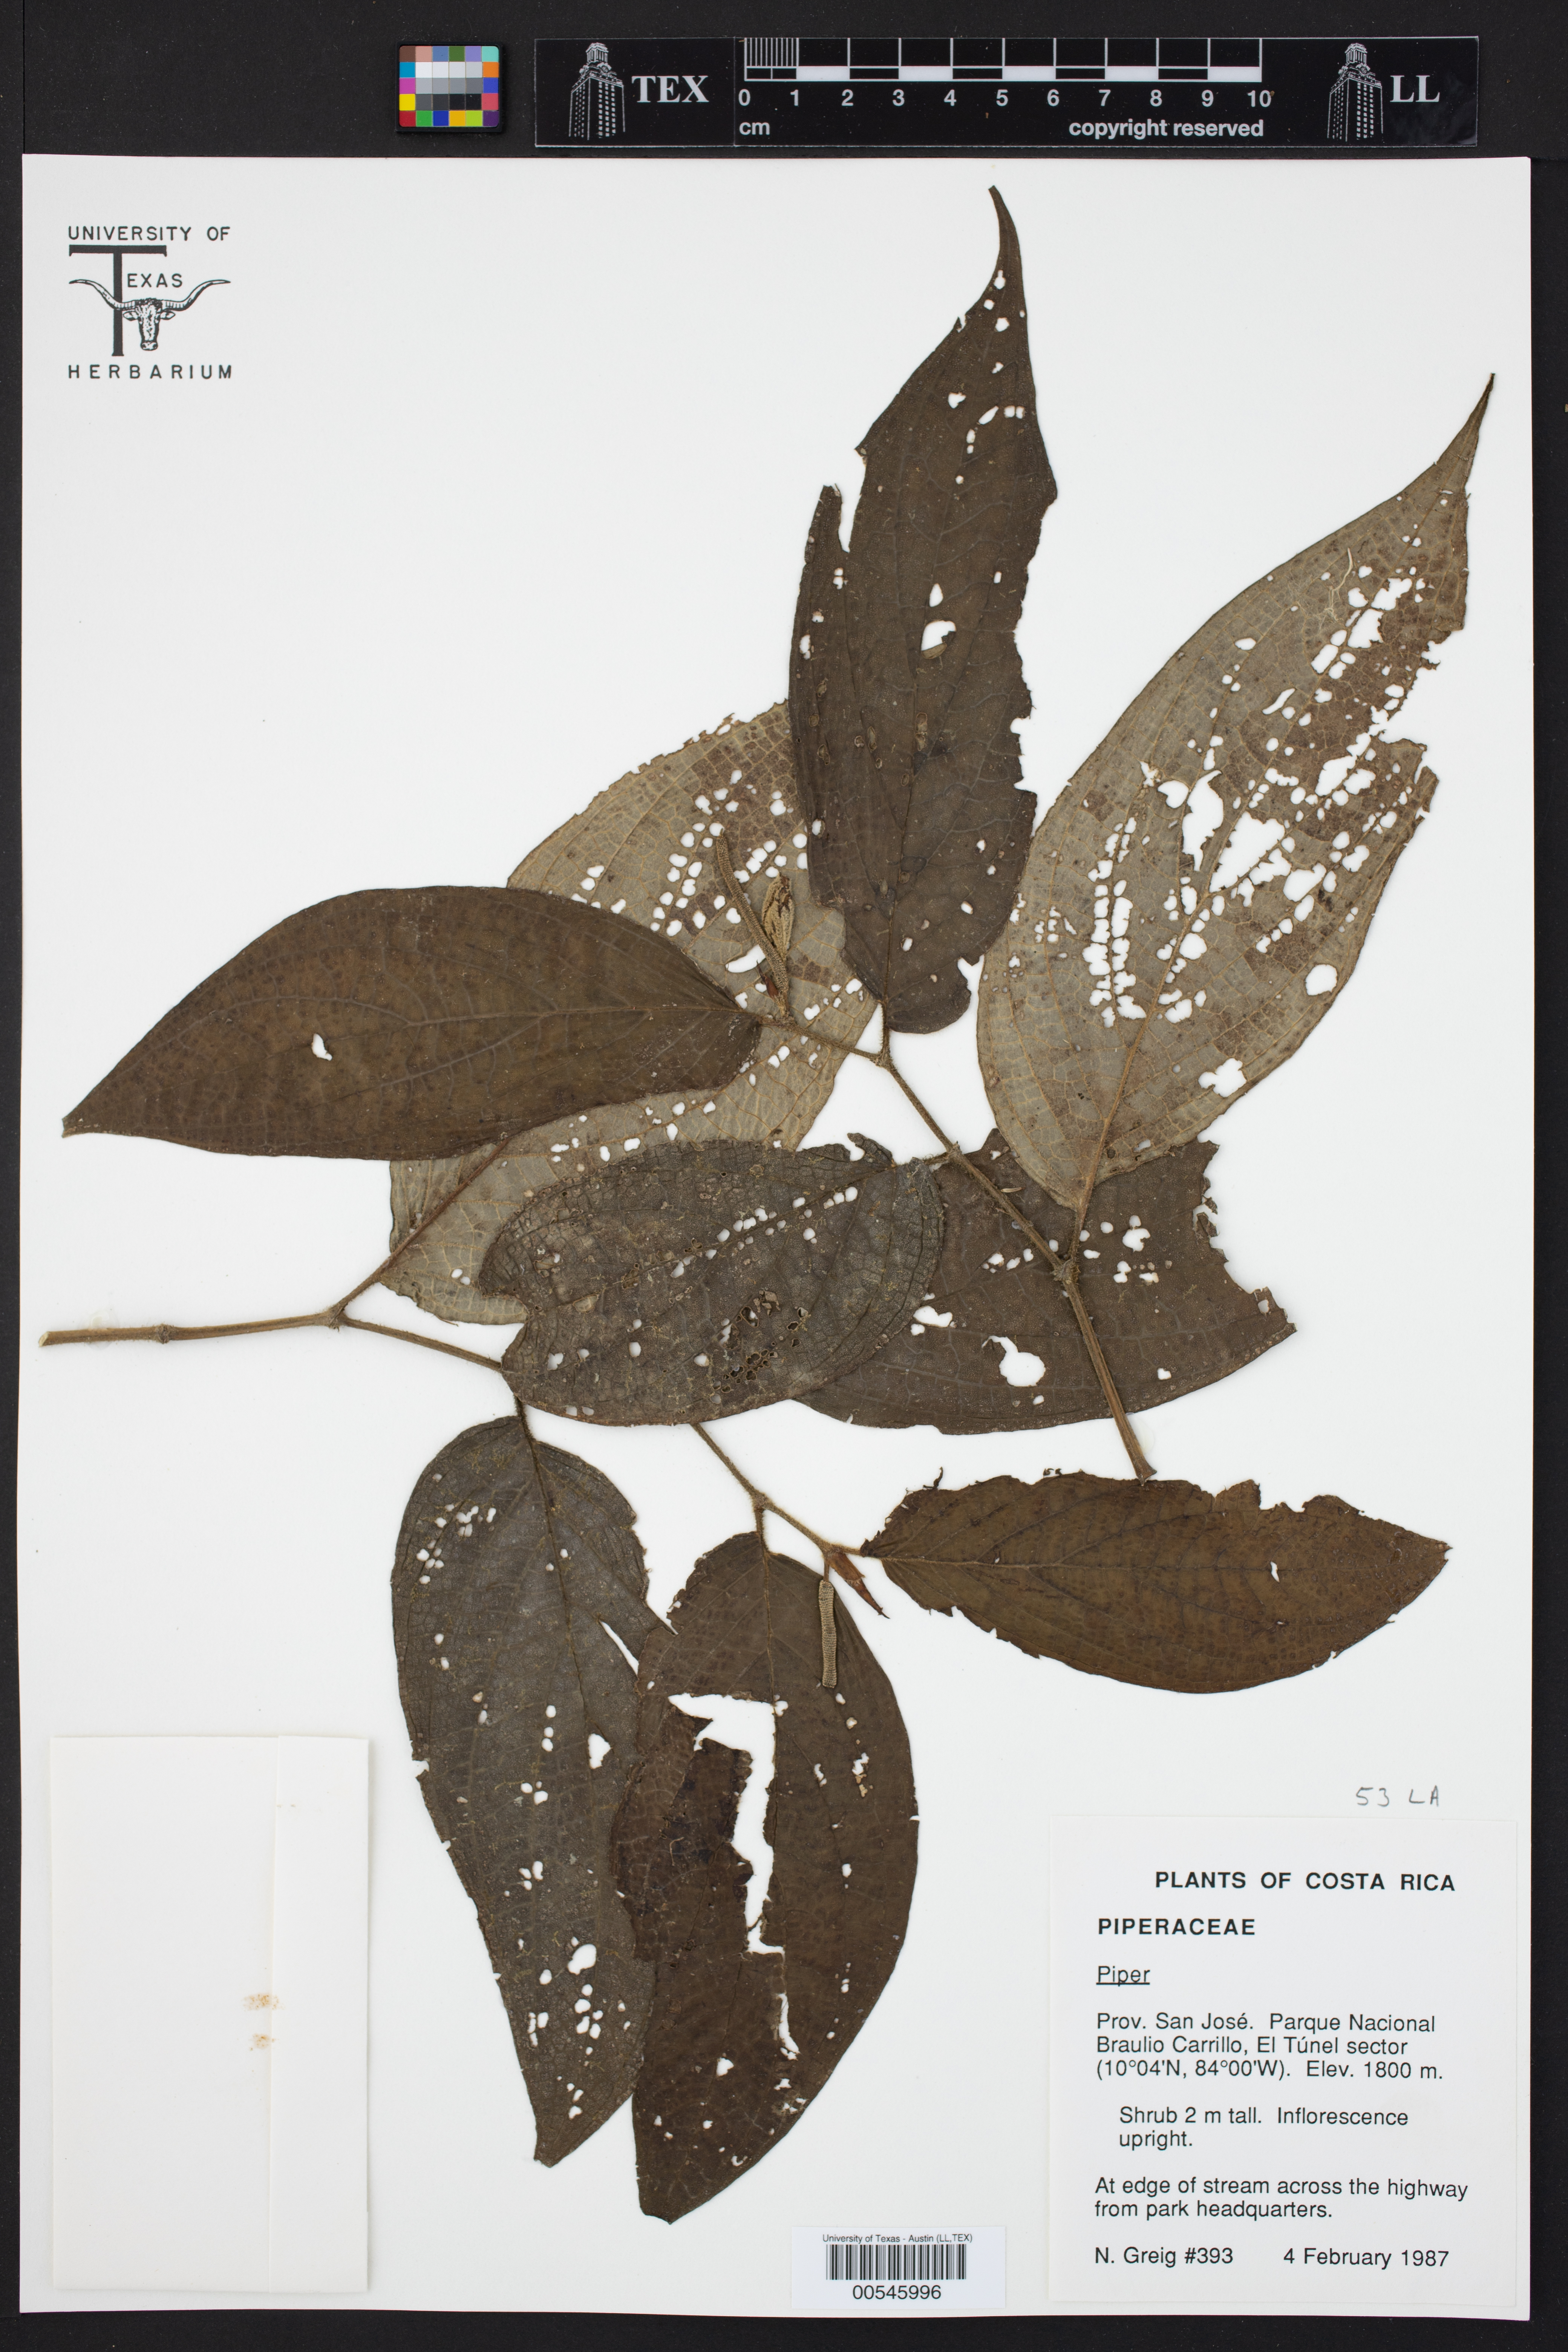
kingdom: Plantae
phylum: Tracheophyta
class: Magnoliopsida
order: Piperales
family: Piperaceae
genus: Piper
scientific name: Piper
